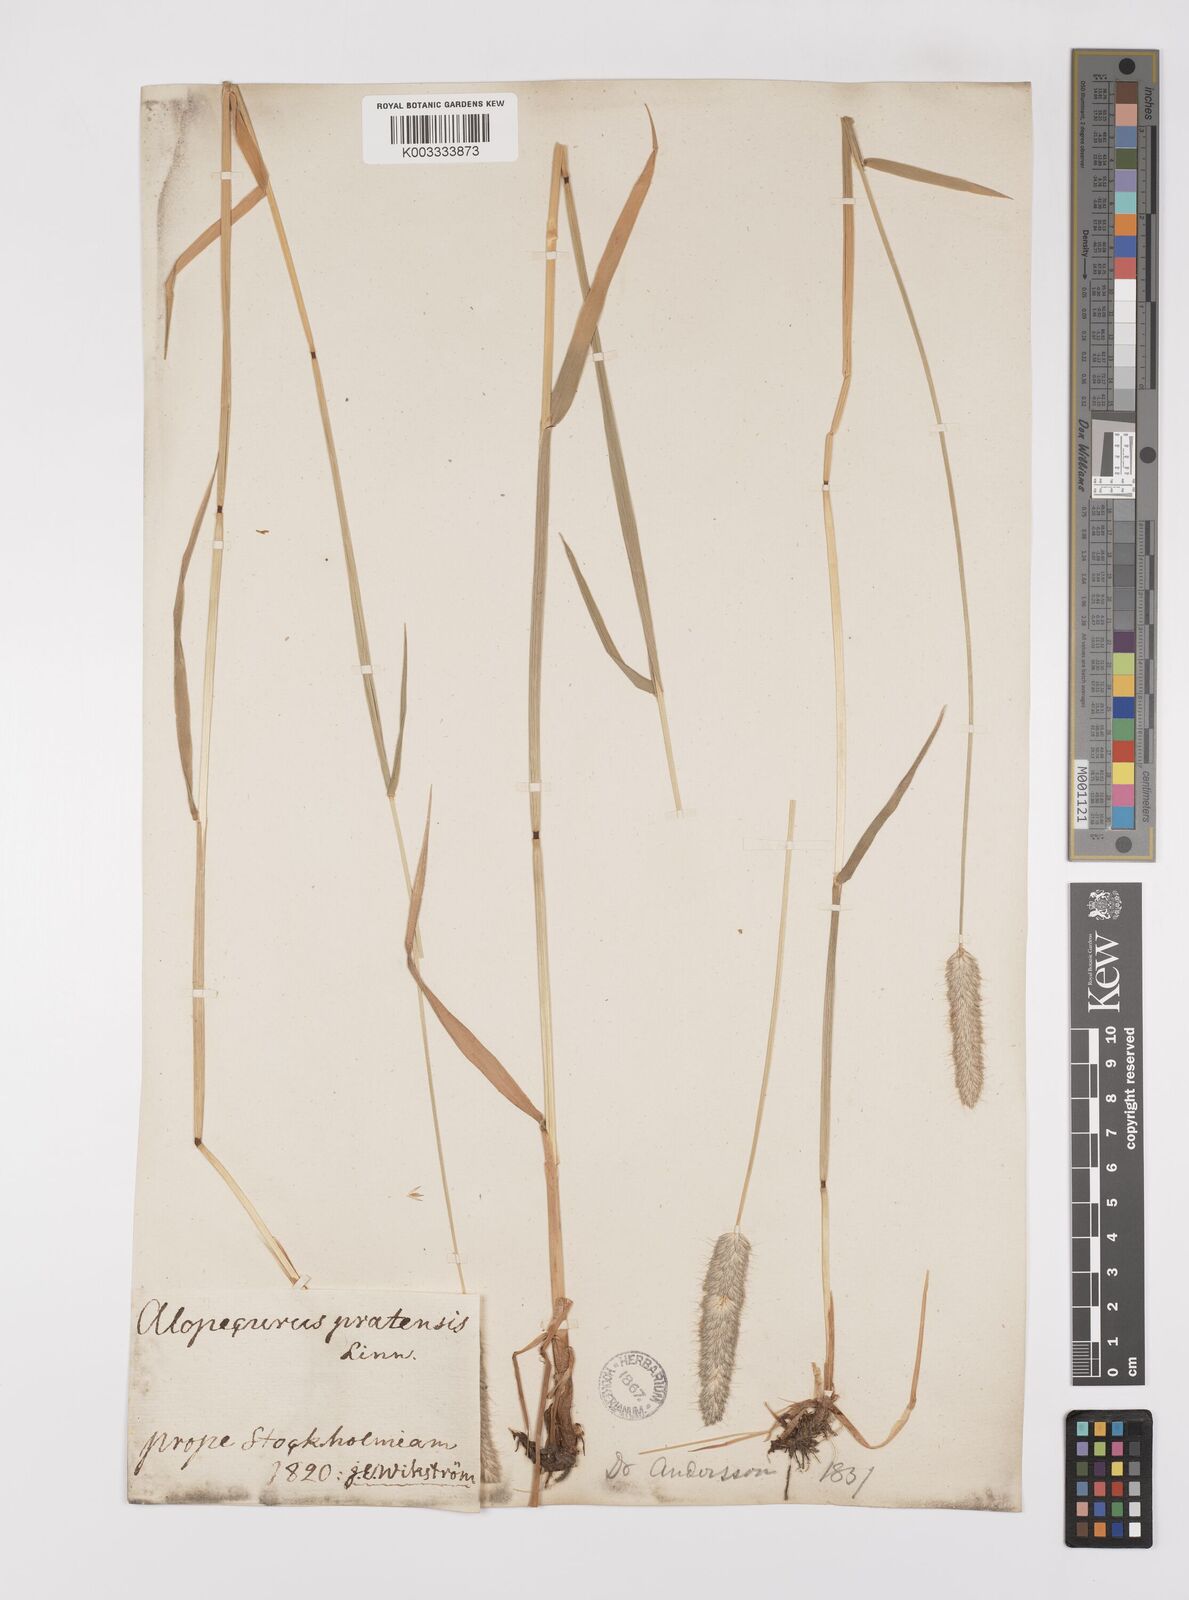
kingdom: Plantae
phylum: Tracheophyta
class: Liliopsida
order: Poales
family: Poaceae
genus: Alopecurus
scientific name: Alopecurus pratensis
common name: Meadow foxtail
